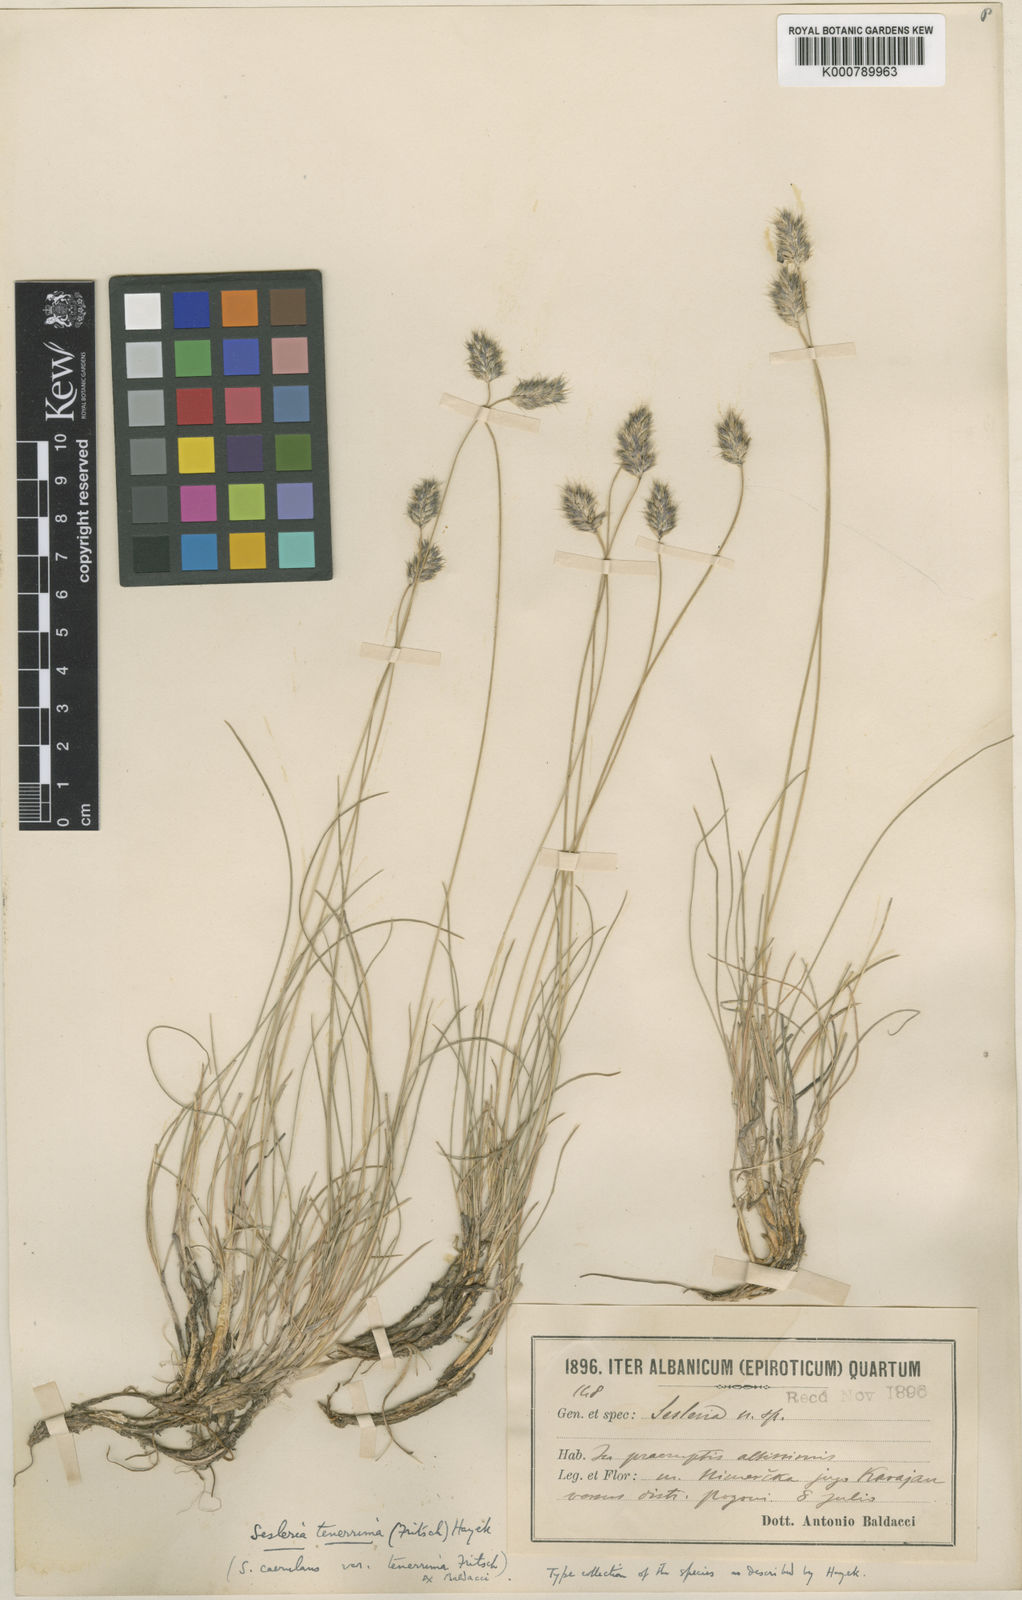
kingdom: Plantae
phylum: Tracheophyta
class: Liliopsida
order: Poales
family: Poaceae
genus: Sesleria
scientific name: Sesleria tenerrima
